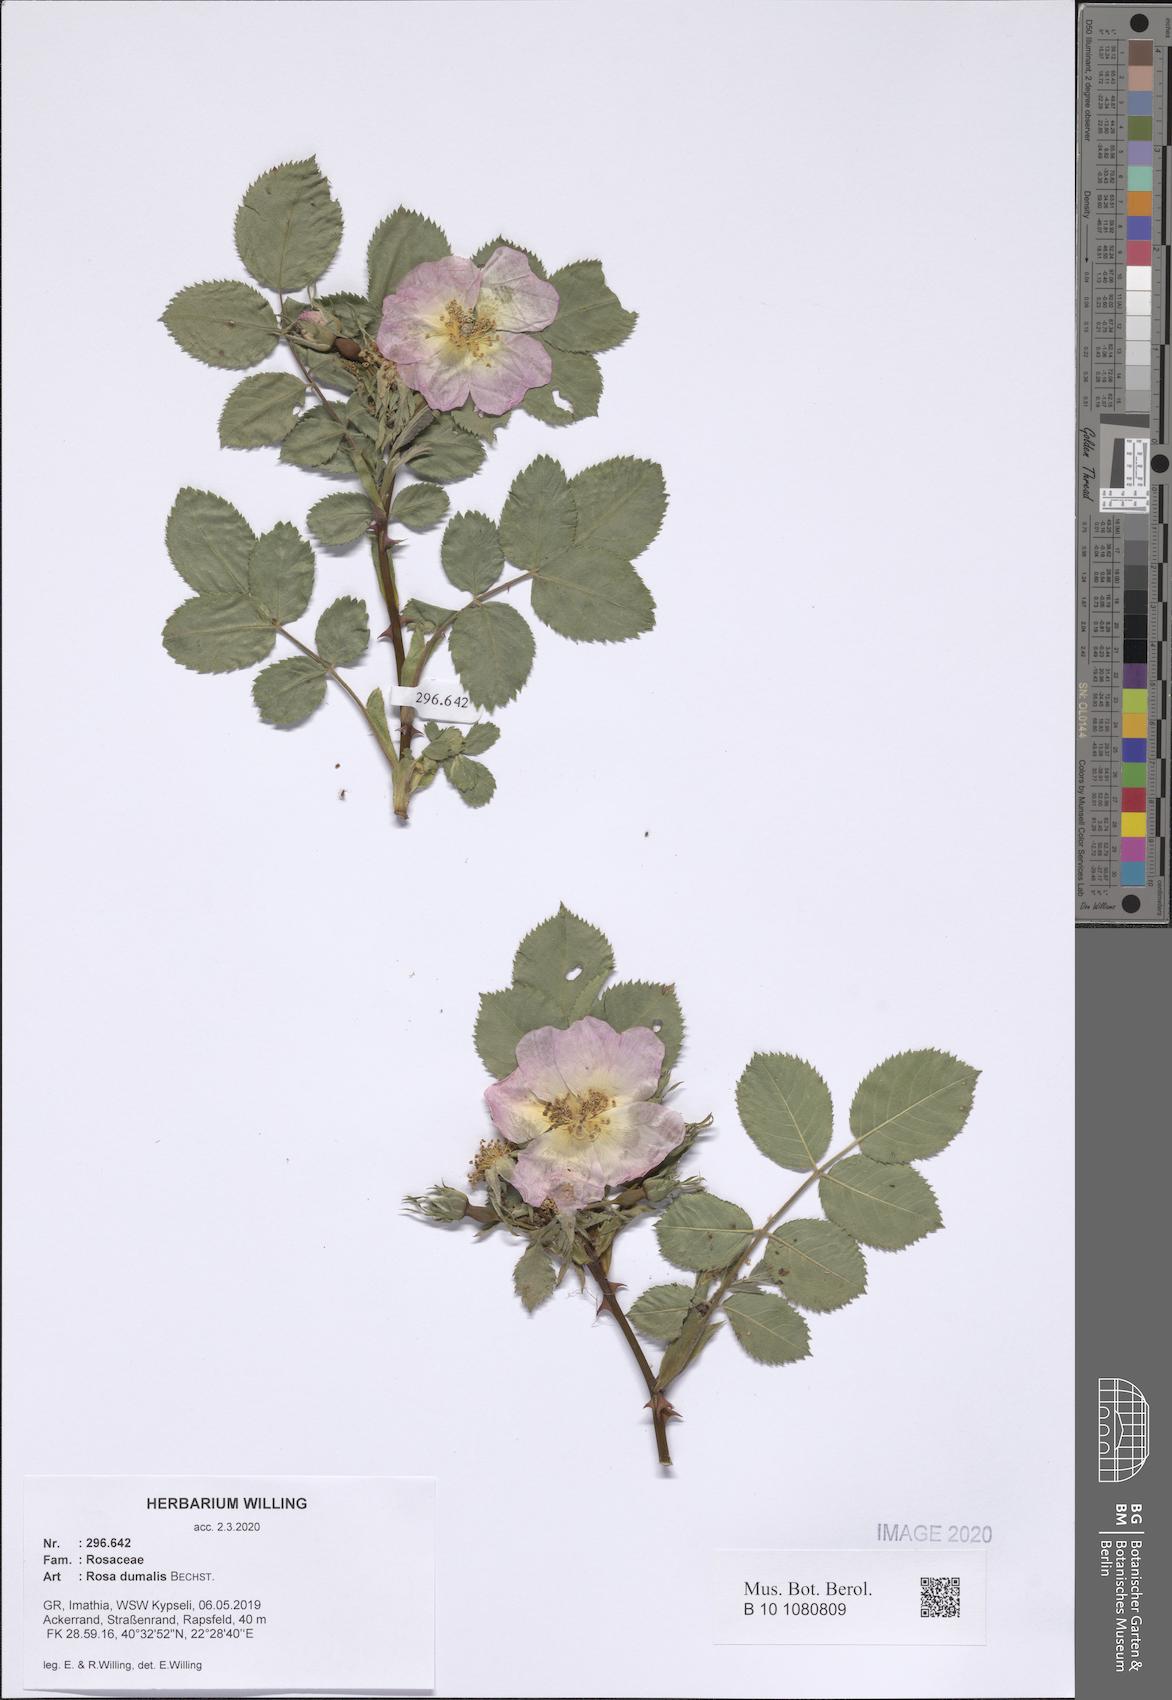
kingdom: Plantae
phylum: Tracheophyta
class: Magnoliopsida
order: Rosales
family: Rosaceae
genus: Rosa
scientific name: Rosa dumalis
